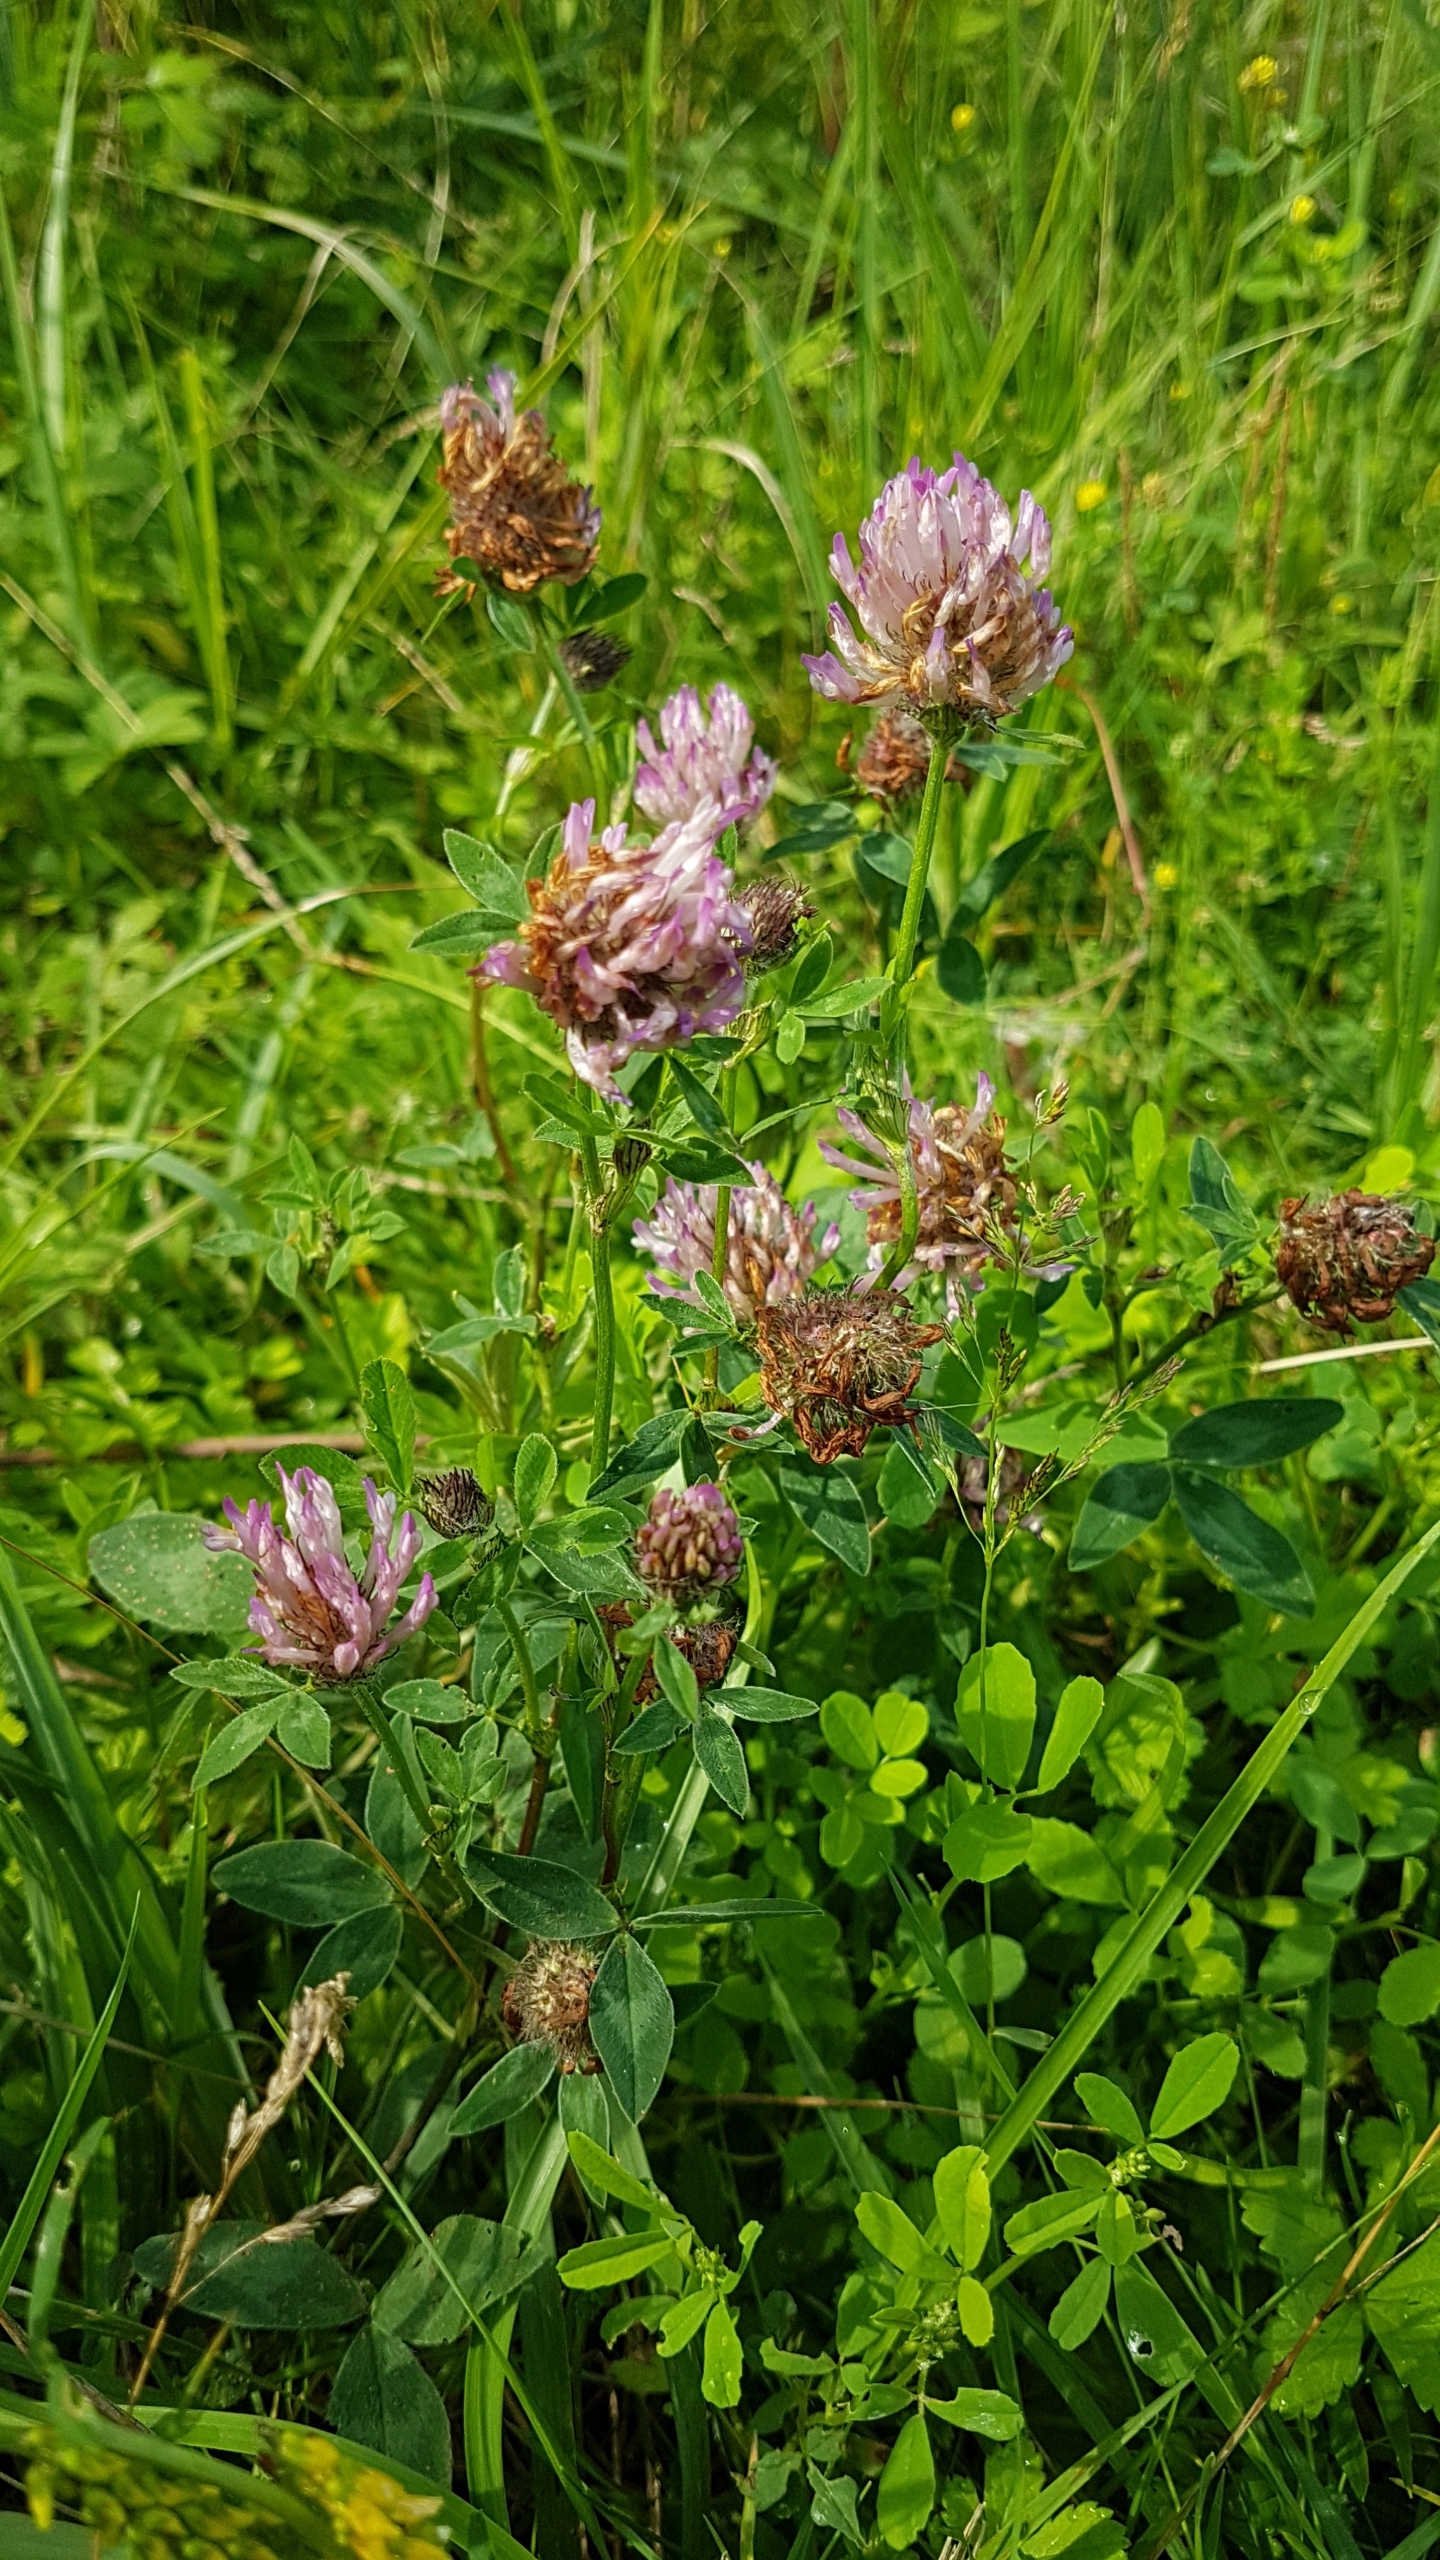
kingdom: Plantae
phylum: Tracheophyta
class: Magnoliopsida
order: Fabales
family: Fabaceae
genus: Trifolium
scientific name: Trifolium pratense
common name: Rød-kløver
